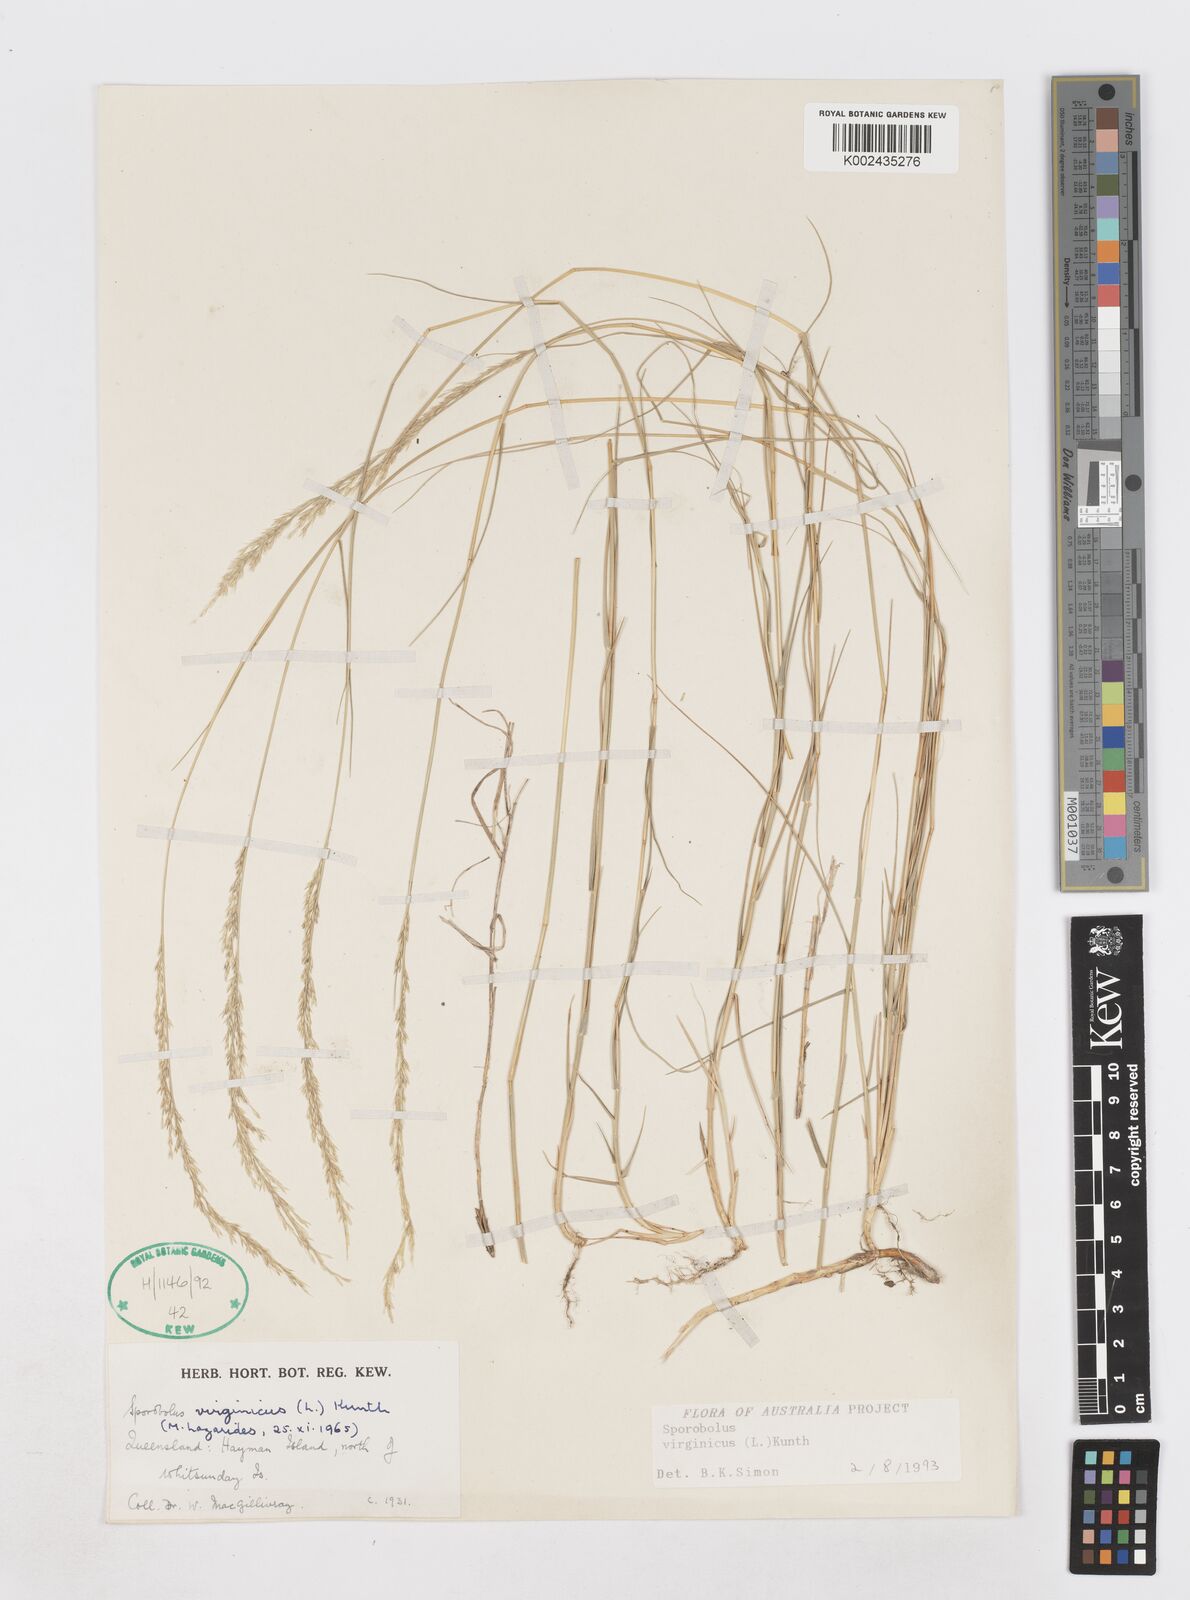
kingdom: Plantae
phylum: Tracheophyta
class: Liliopsida
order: Poales
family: Poaceae
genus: Sporobolus
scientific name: Sporobolus virginicus
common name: Beach dropseed
